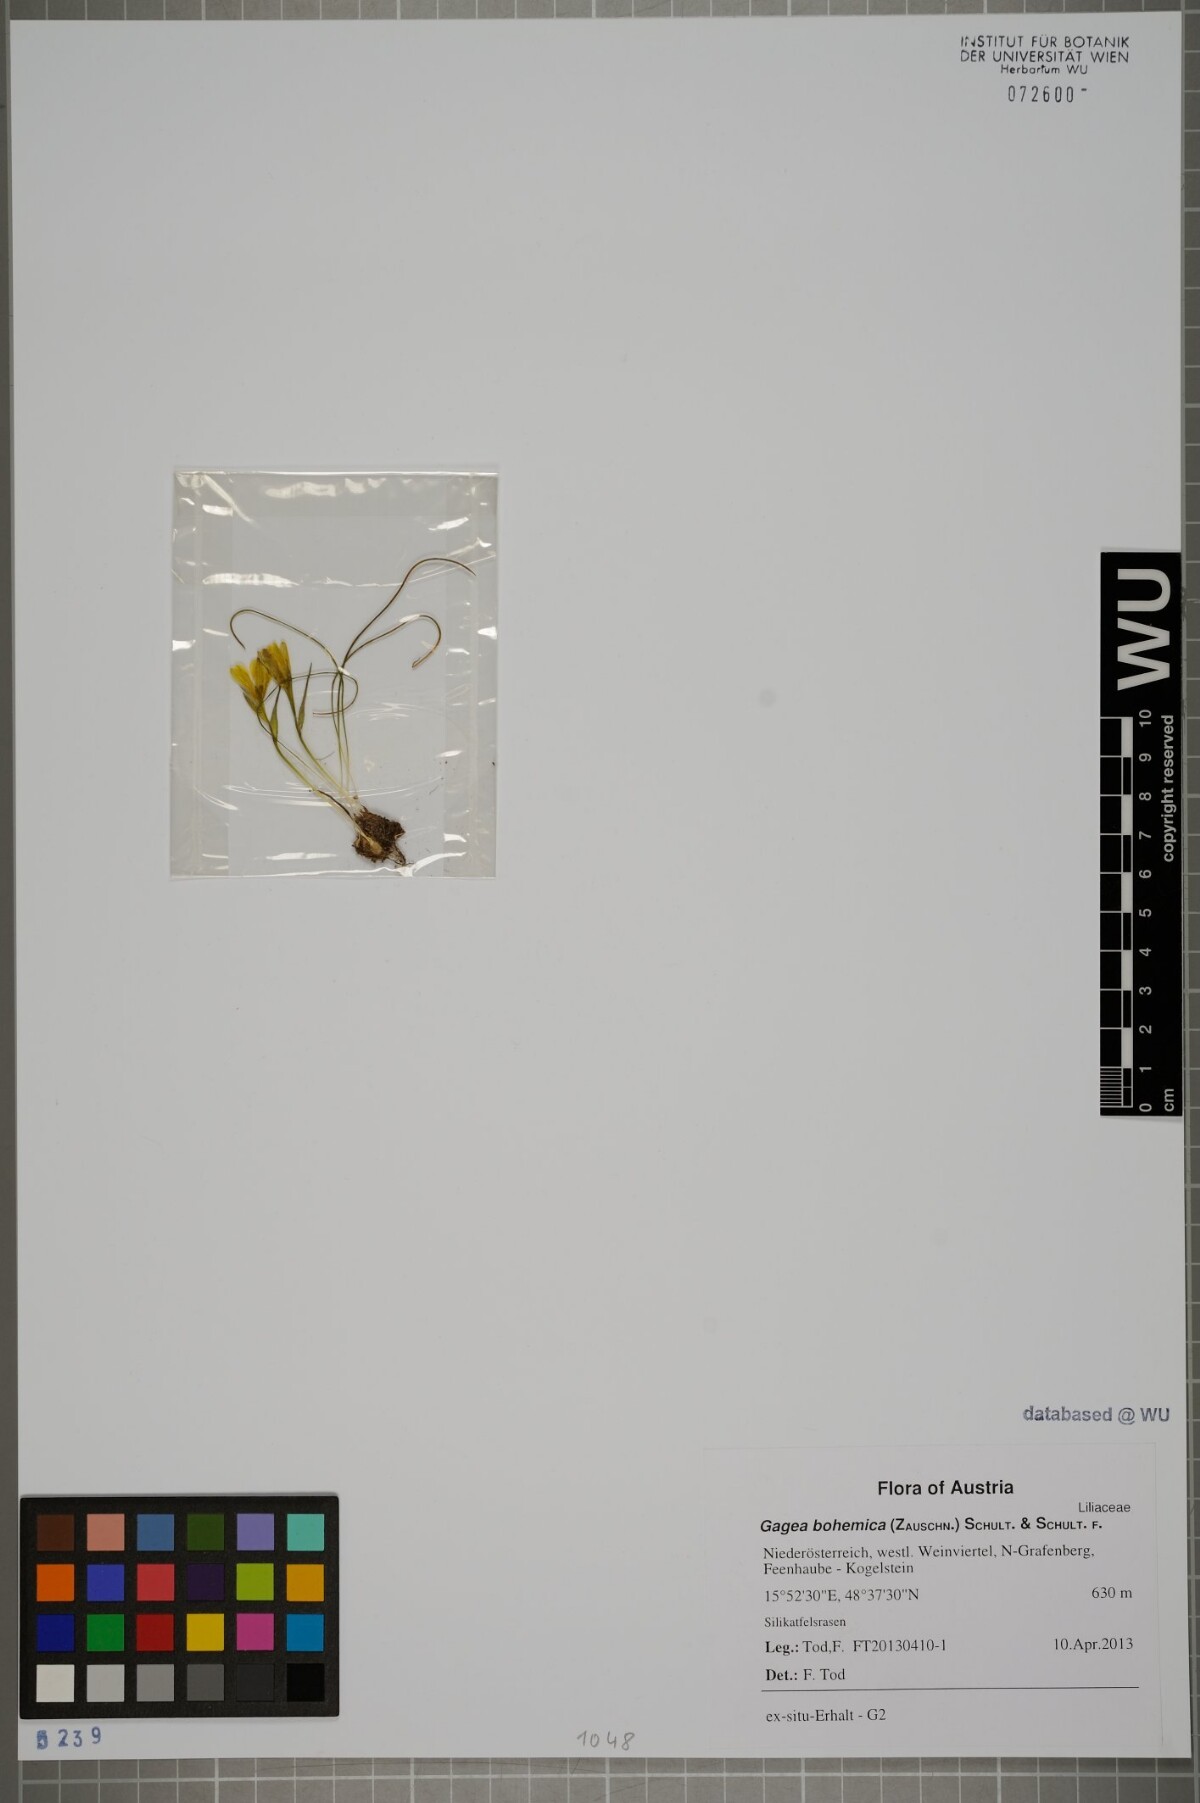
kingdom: Plantae
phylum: Tracheophyta
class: Liliopsida
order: Liliales
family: Liliaceae
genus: Gagea
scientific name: Gagea bohemica
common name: Early star-of-bethlehem
